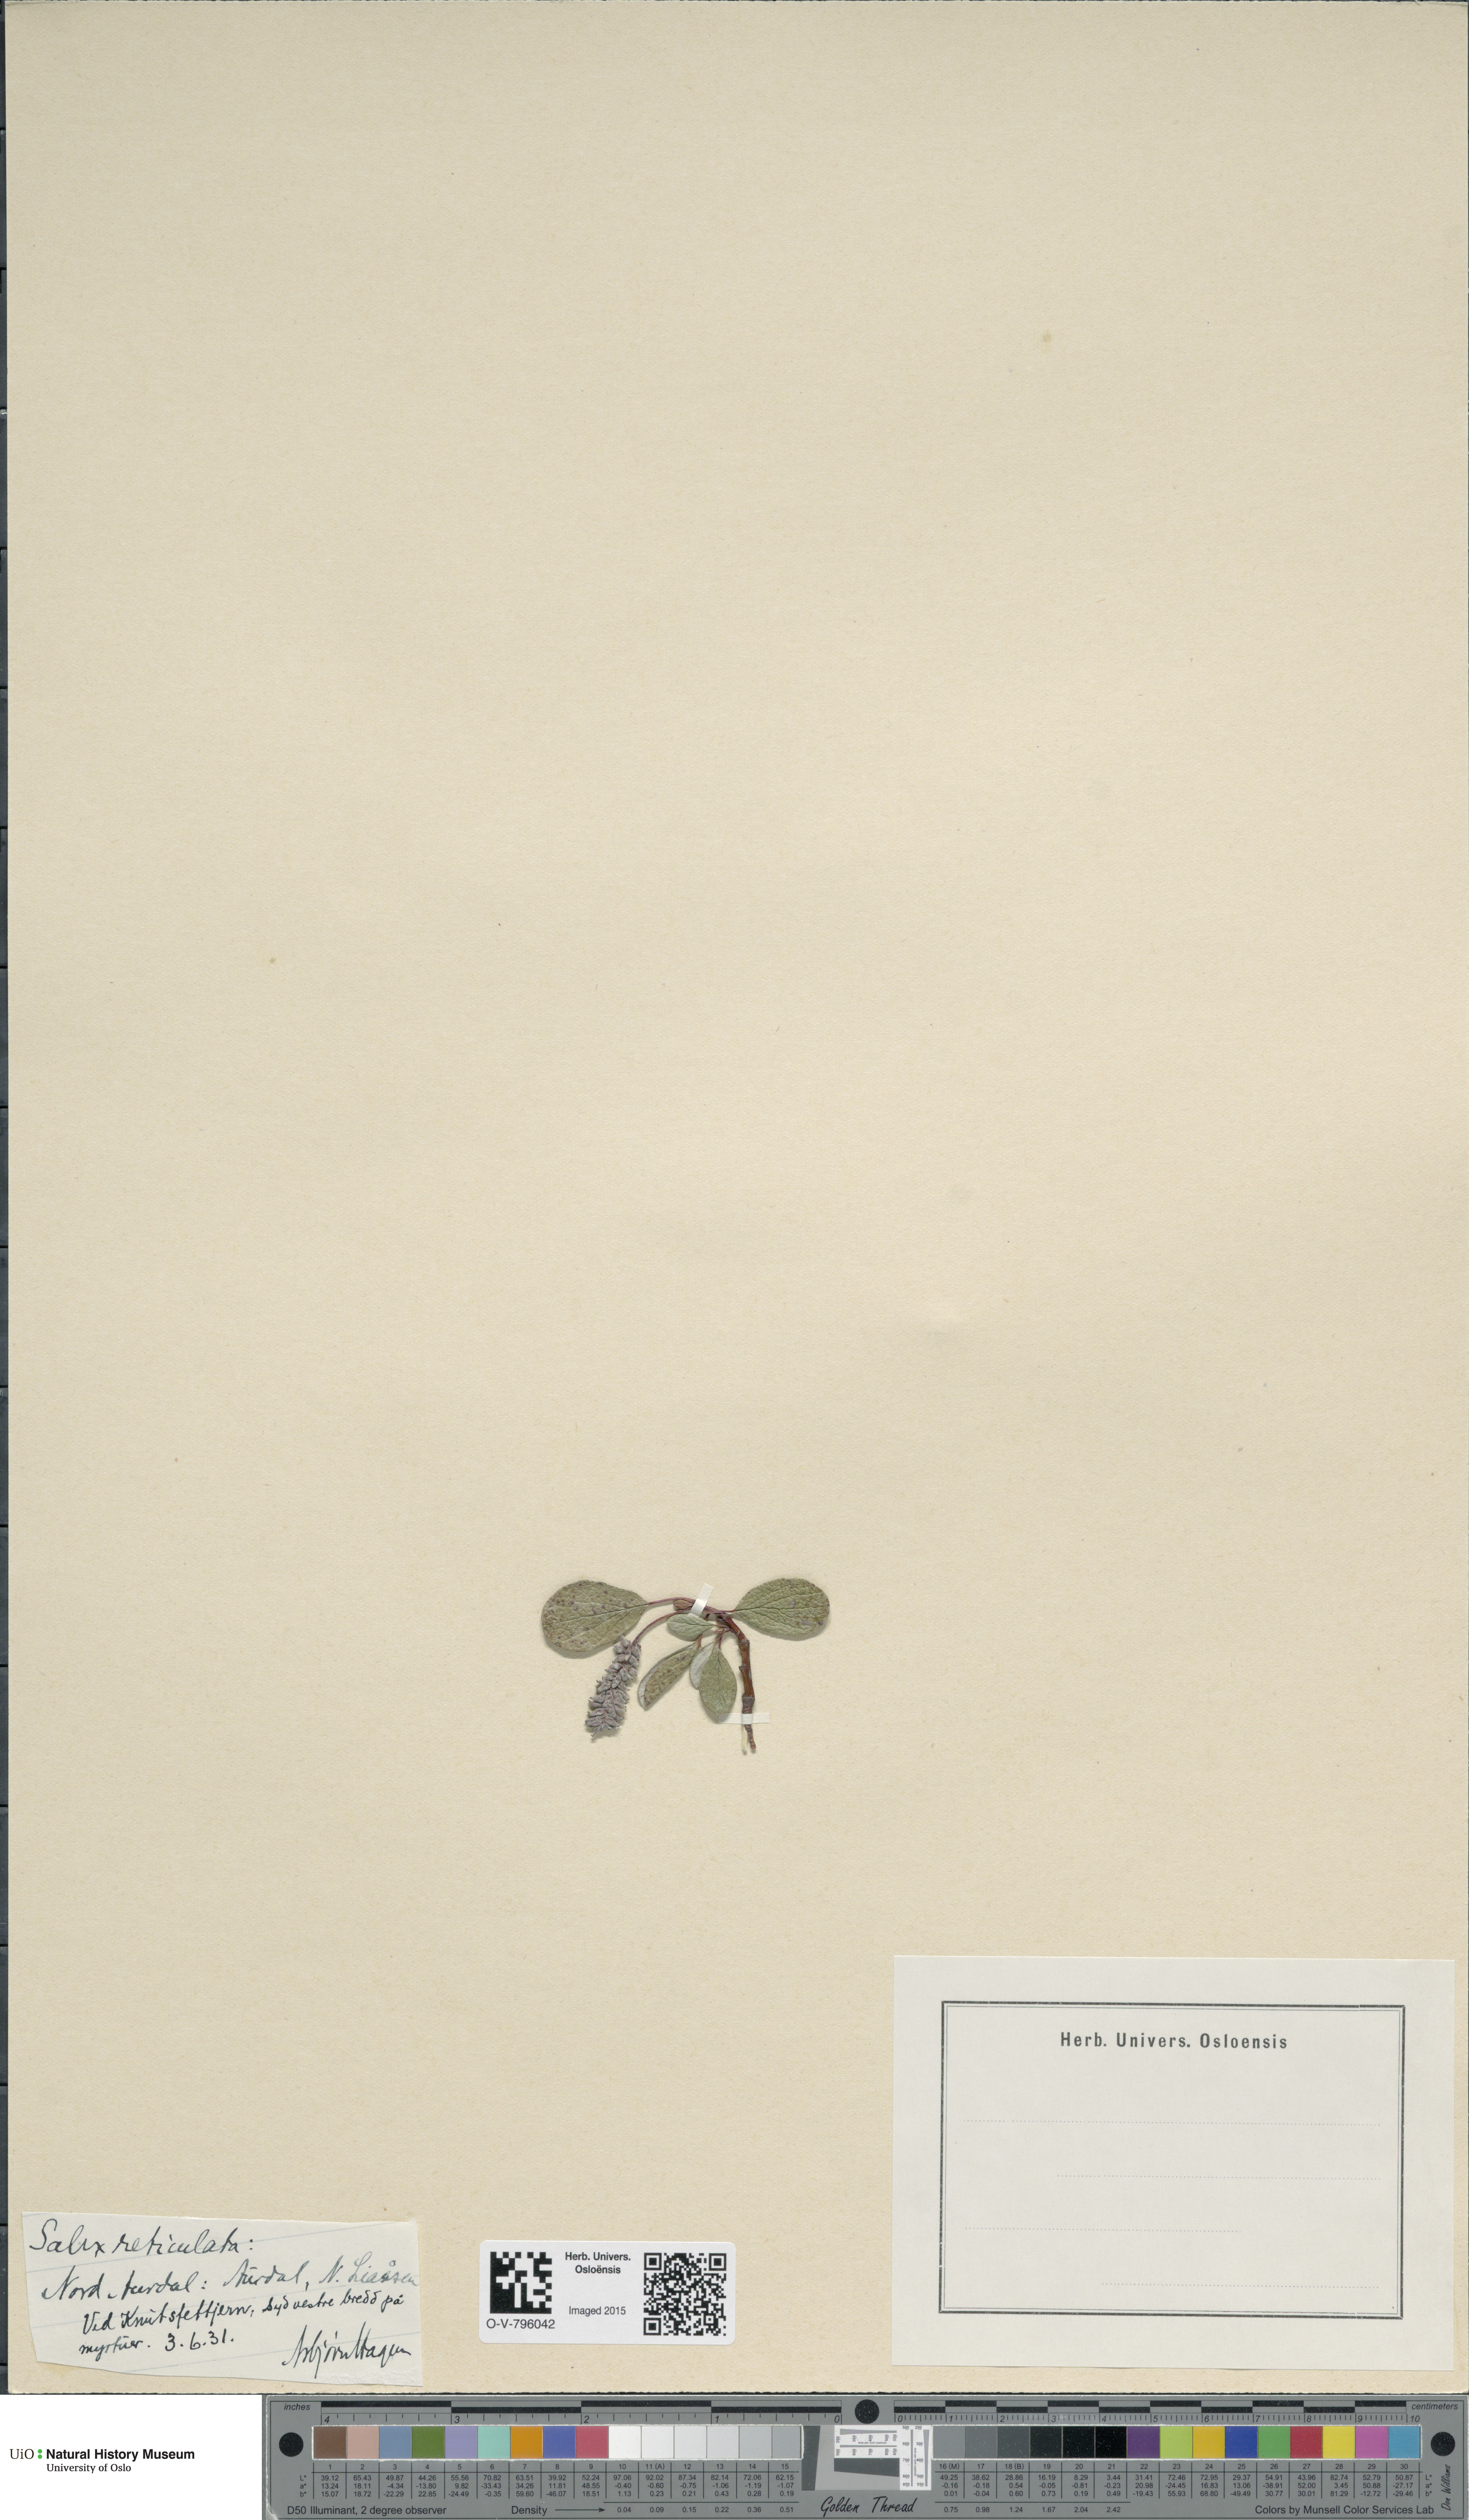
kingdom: Plantae
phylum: Tracheophyta
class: Magnoliopsida
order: Malpighiales
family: Salicaceae
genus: Salix
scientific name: Salix reticulata
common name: Net-leaved willow
